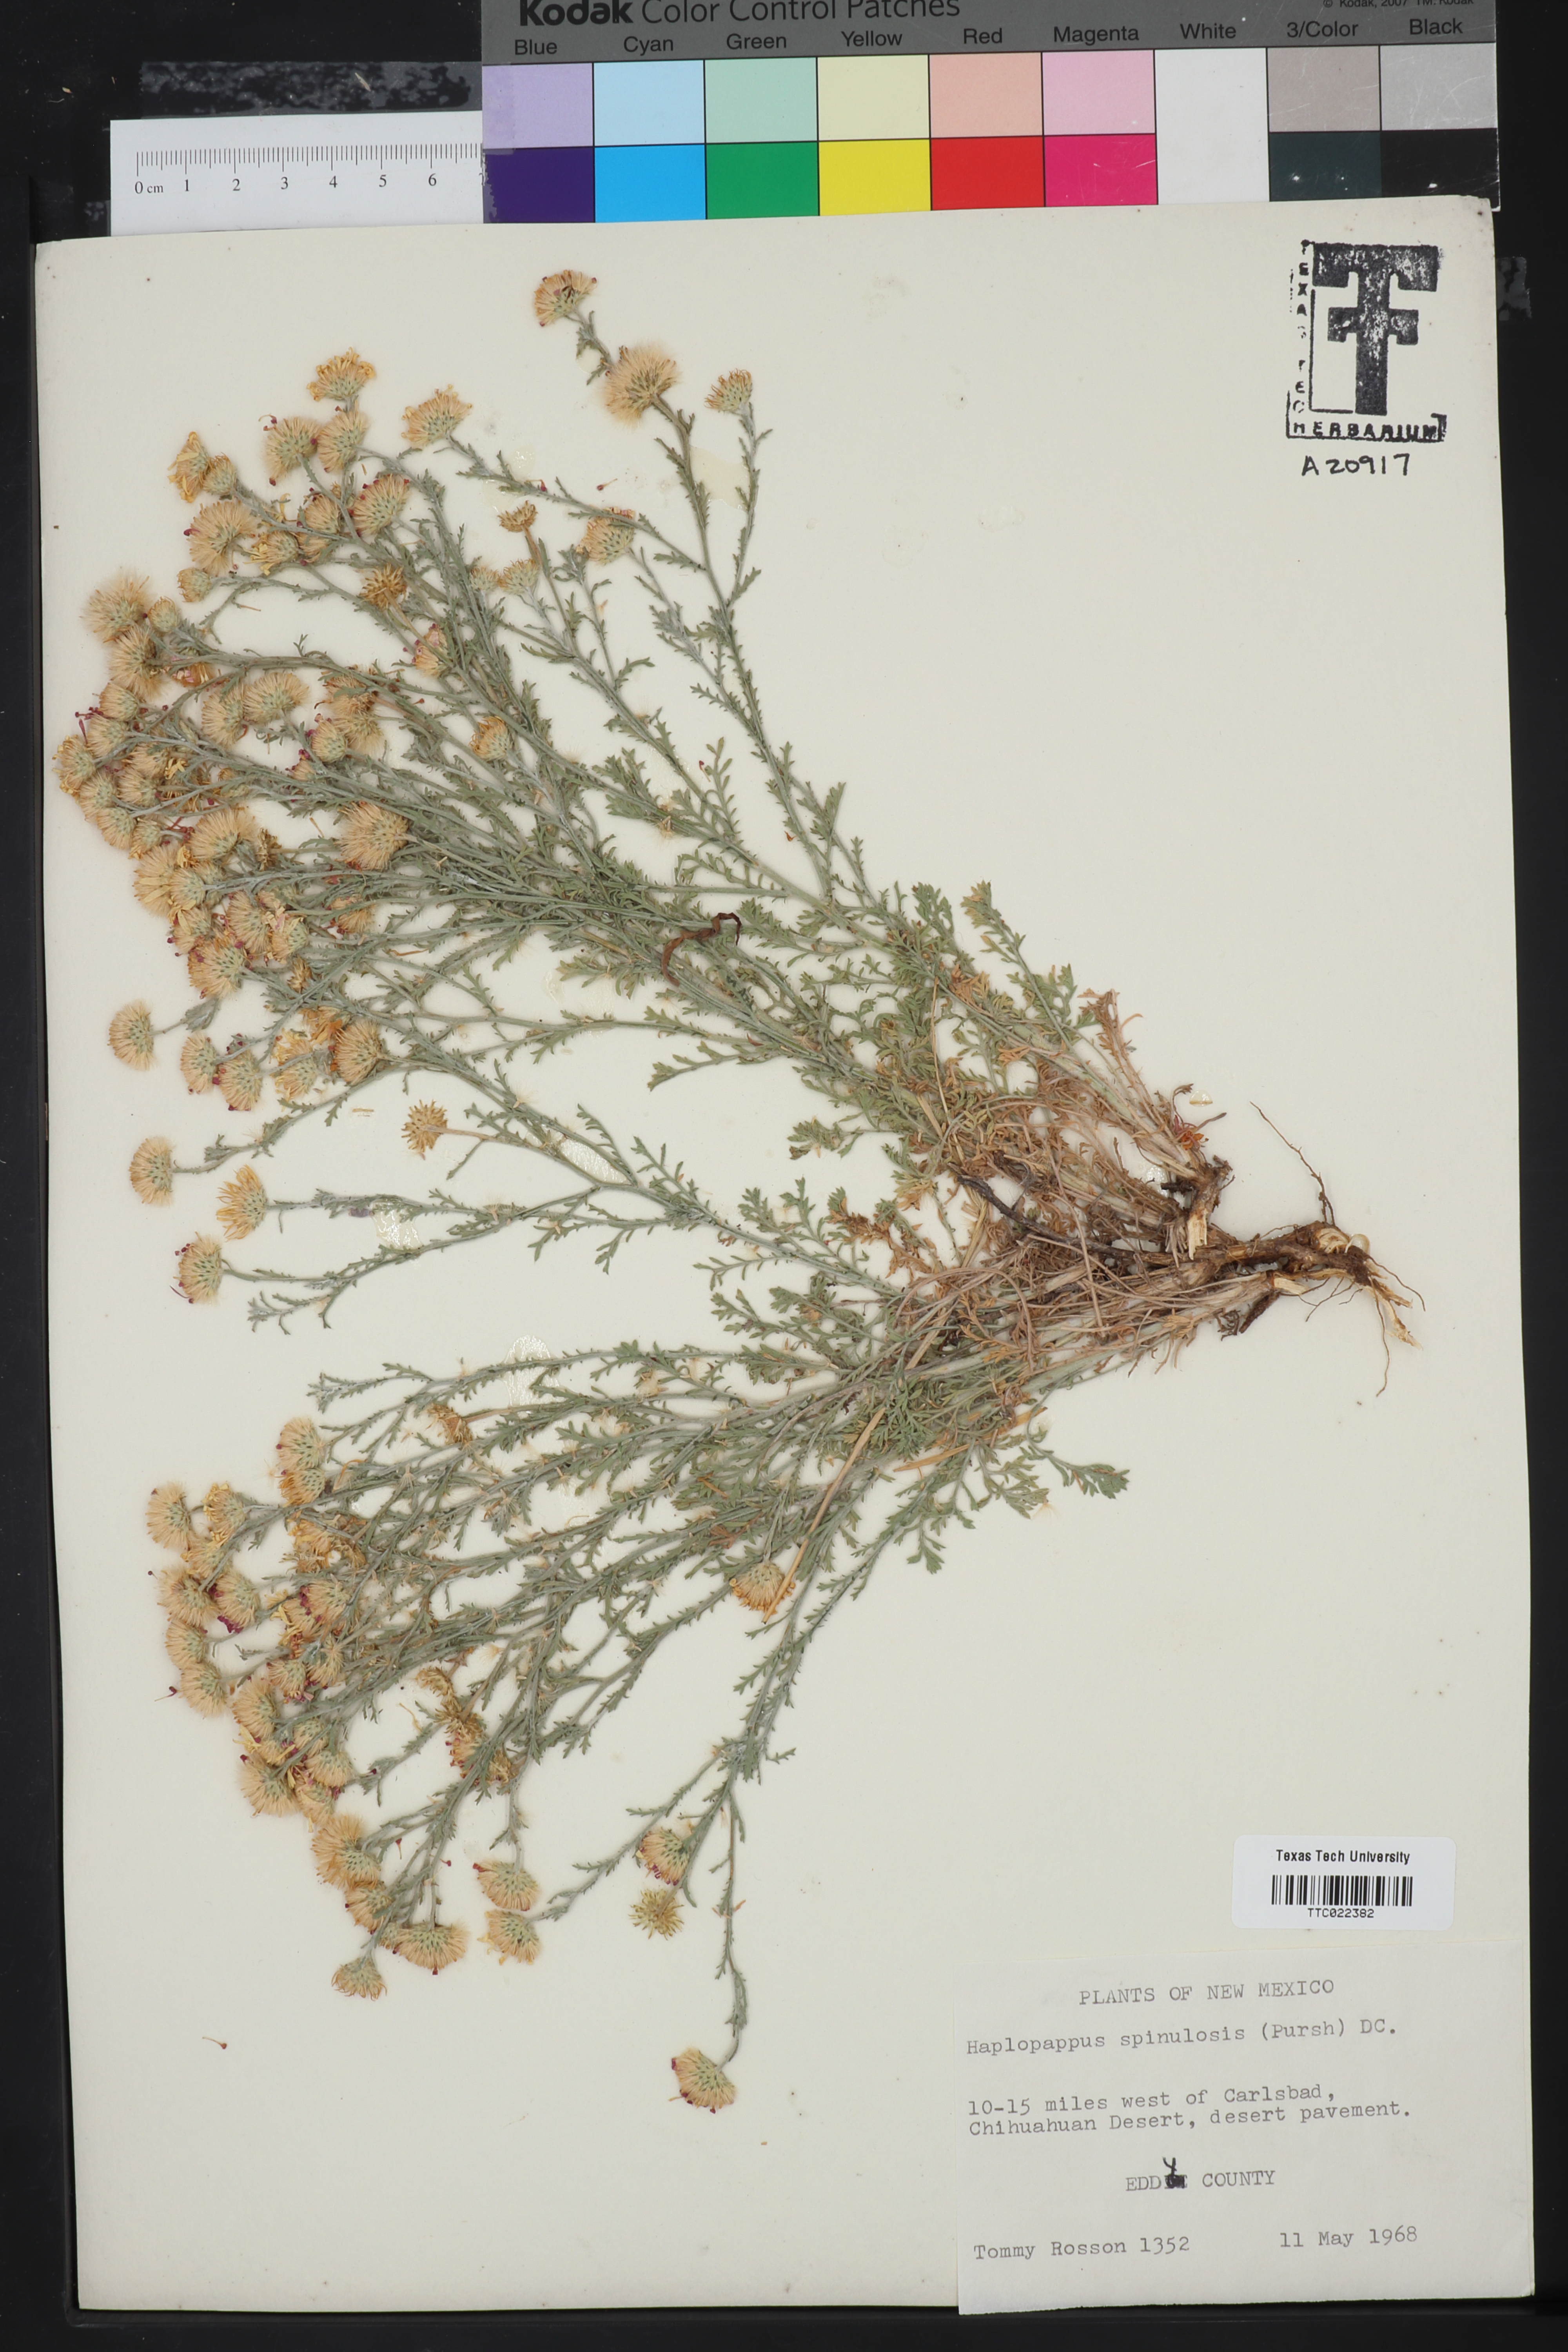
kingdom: Plantae
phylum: Tracheophyta
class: Magnoliopsida
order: Asterales
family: Asteraceae
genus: Xanthisma
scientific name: Xanthisma spinulosum
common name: Spiny goldenweed
